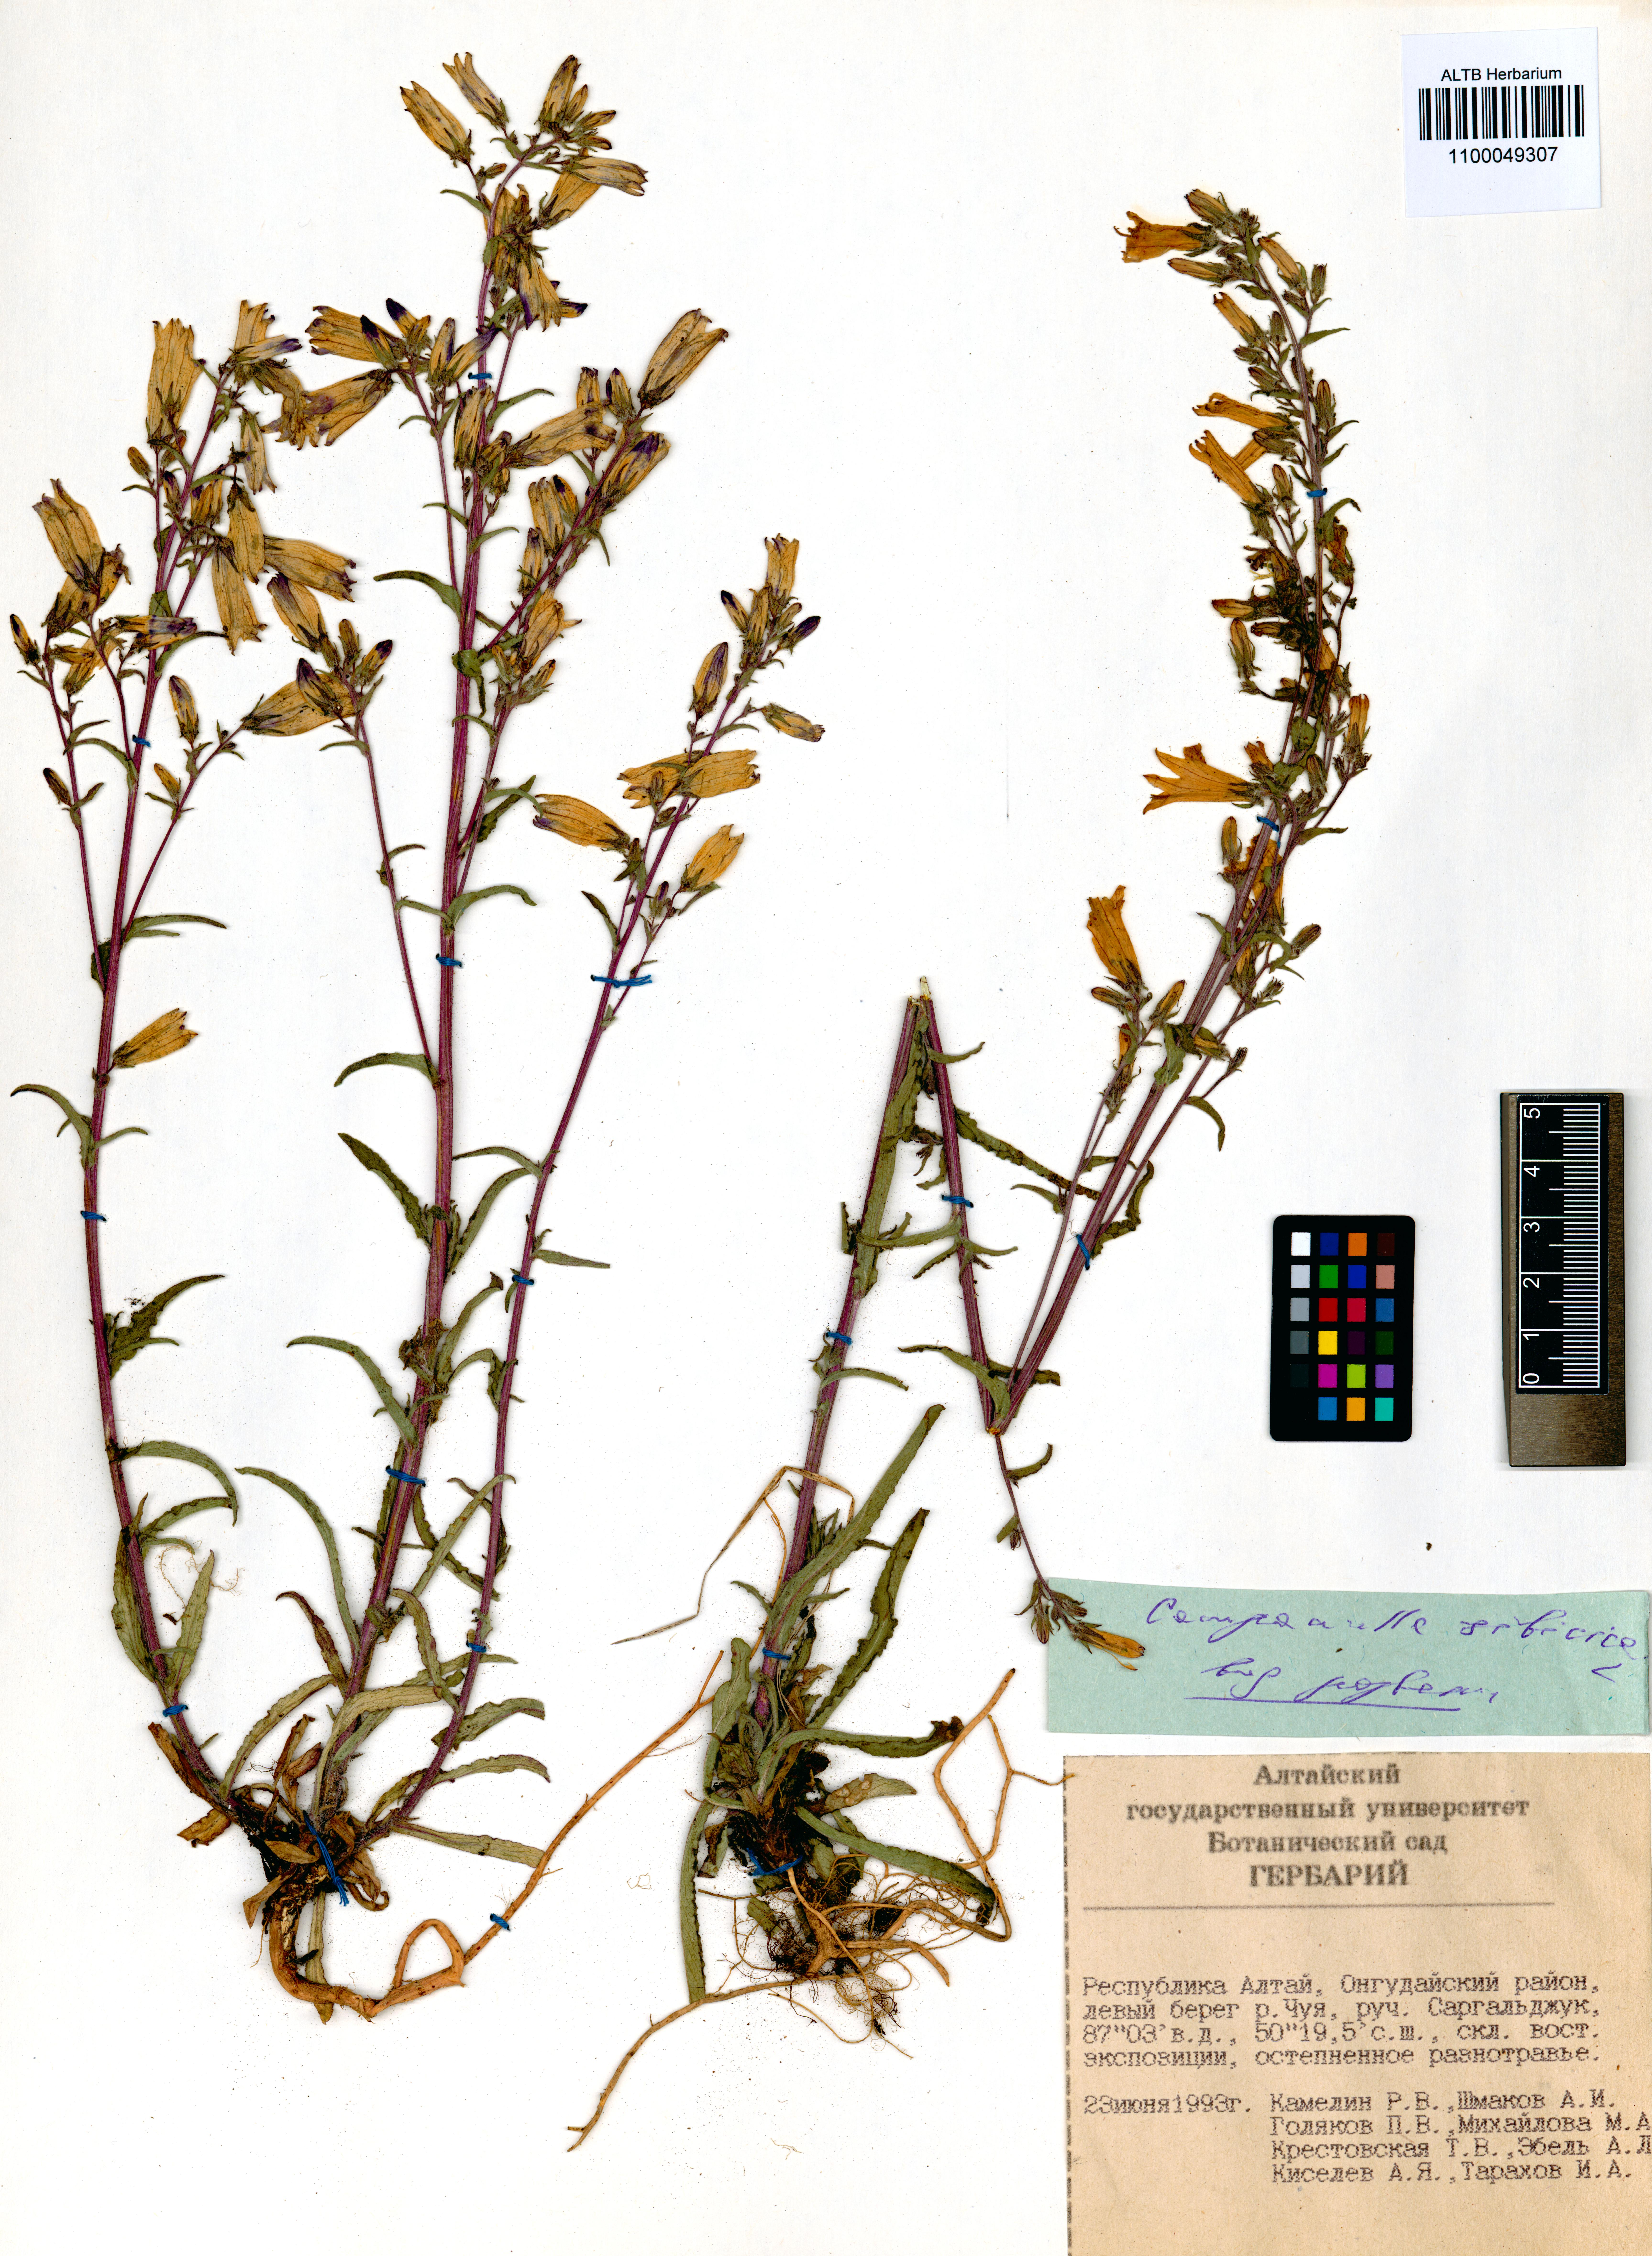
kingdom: Plantae
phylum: Tracheophyta
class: Magnoliopsida
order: Asterales
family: Campanulaceae
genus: Campanula
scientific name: Campanula sibirica
